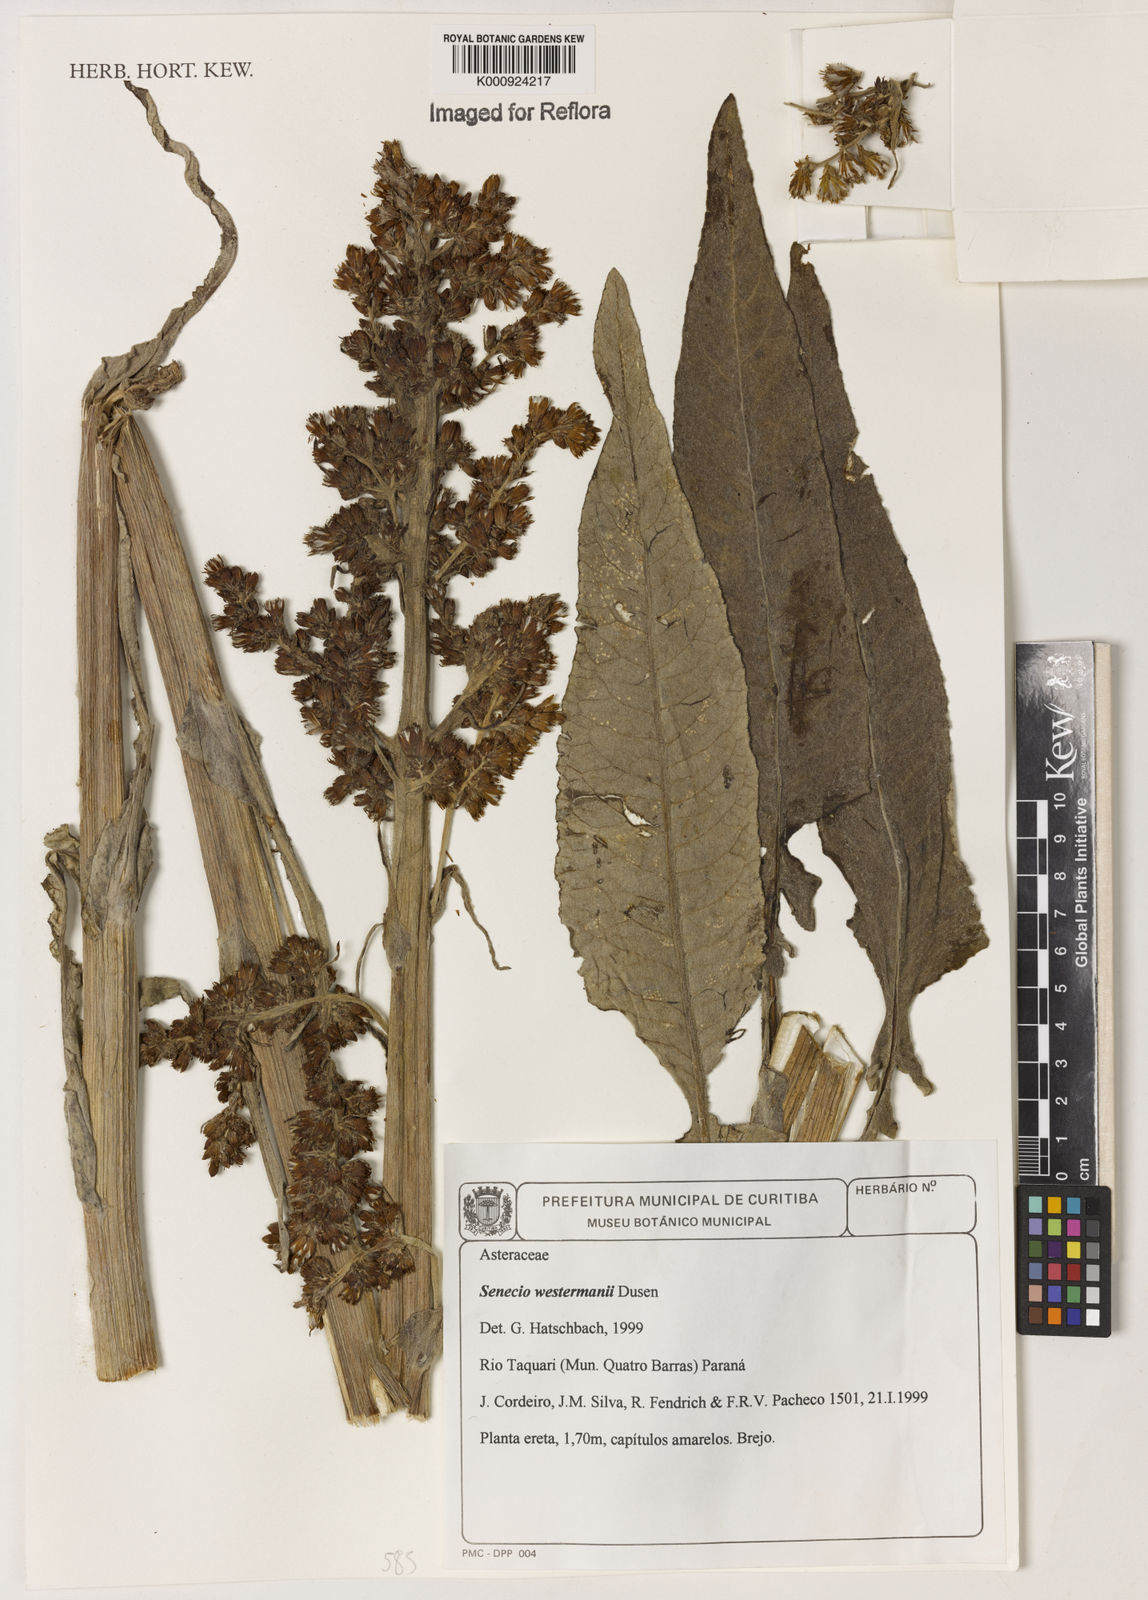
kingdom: Plantae
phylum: Tracheophyta
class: Magnoliopsida
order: Asterales
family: Asteraceae
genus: Senecio
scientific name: Senecio
